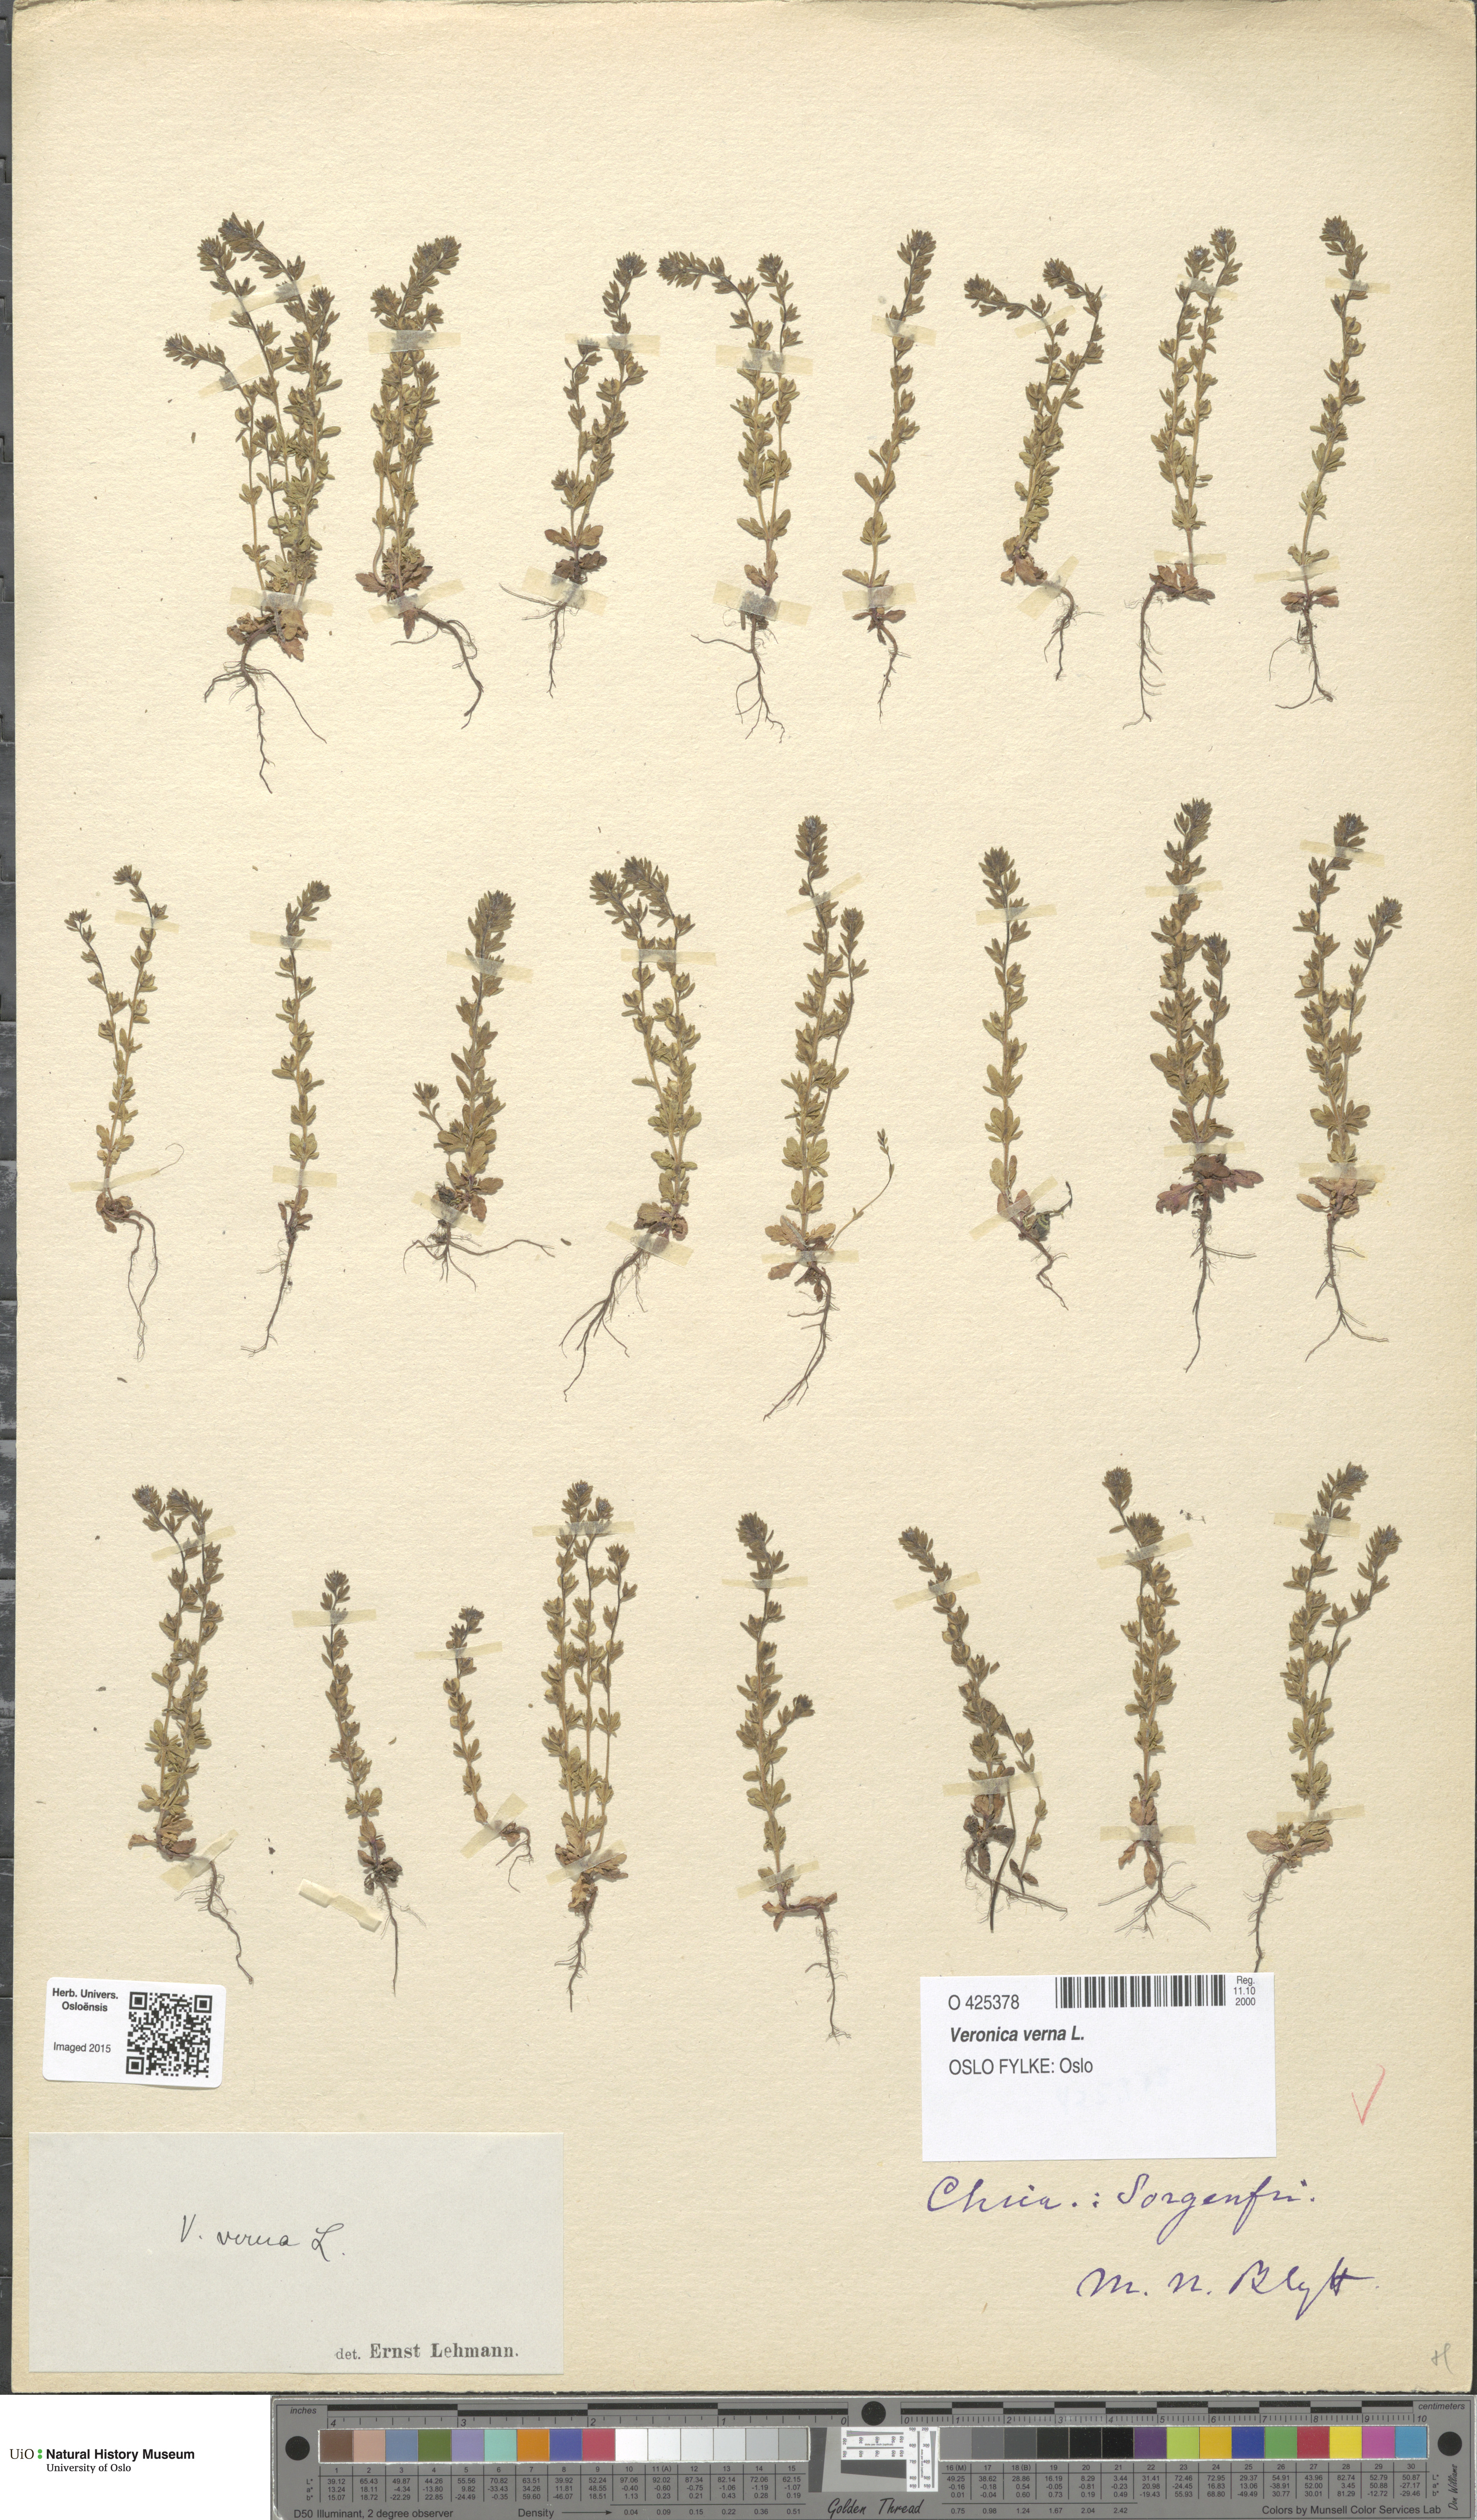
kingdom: Plantae
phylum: Tracheophyta
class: Magnoliopsida
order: Lamiales
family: Plantaginaceae
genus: Veronica
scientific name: Veronica verna
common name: Spring speedwell
